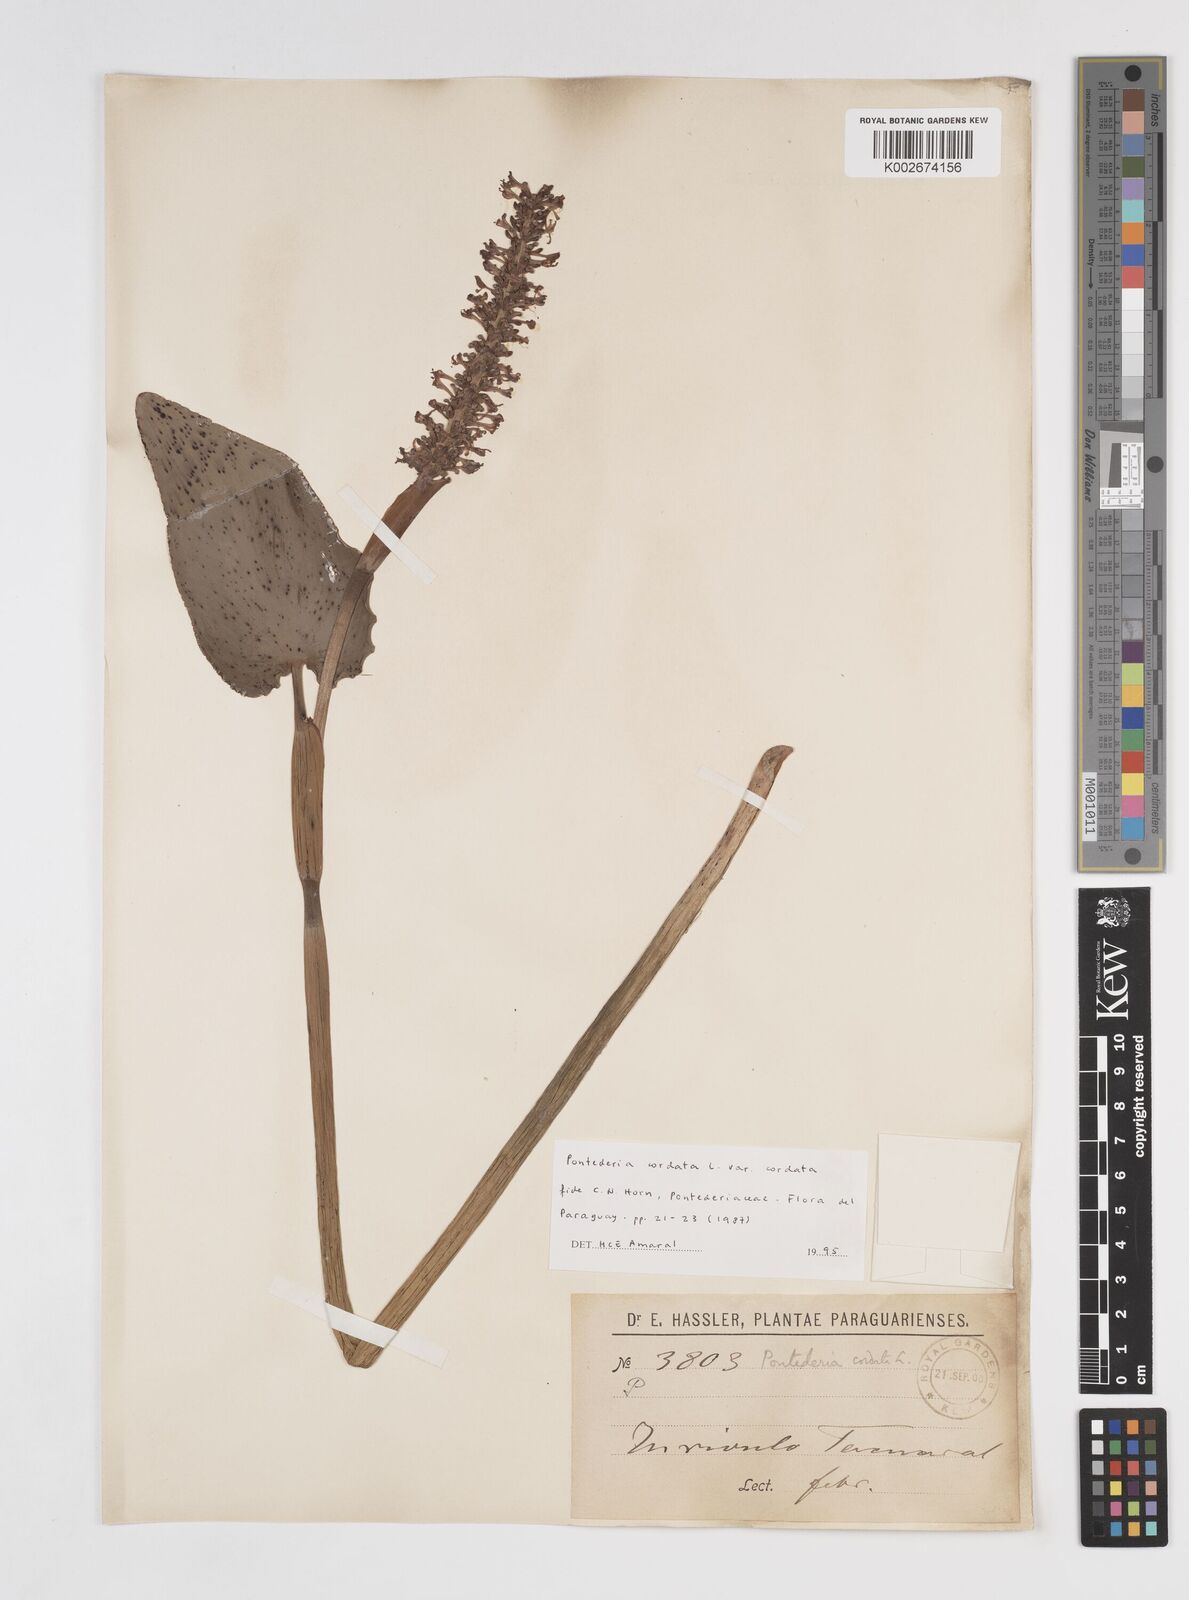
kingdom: Plantae
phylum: Tracheophyta
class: Liliopsida
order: Commelinales
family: Pontederiaceae
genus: Pontederia
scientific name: Pontederia
